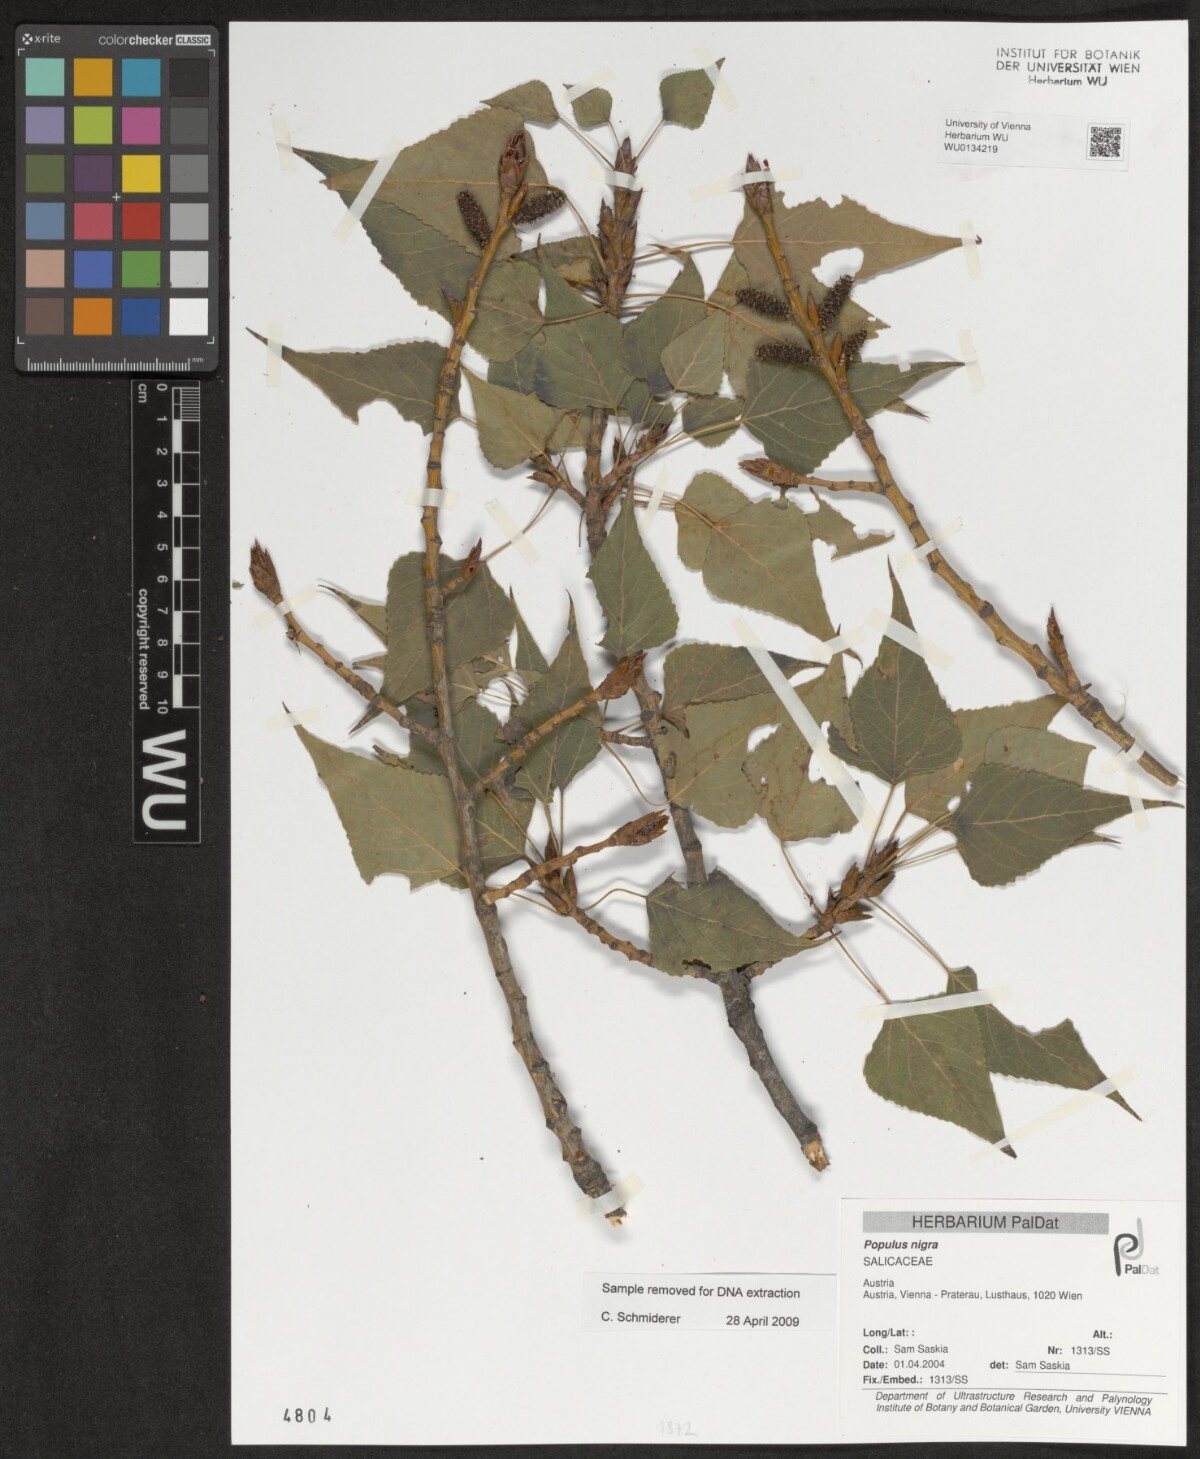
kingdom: Plantae
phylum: Tracheophyta
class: Magnoliopsida
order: Malpighiales
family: Salicaceae
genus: Populus
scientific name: Populus nigra
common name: Black poplar
